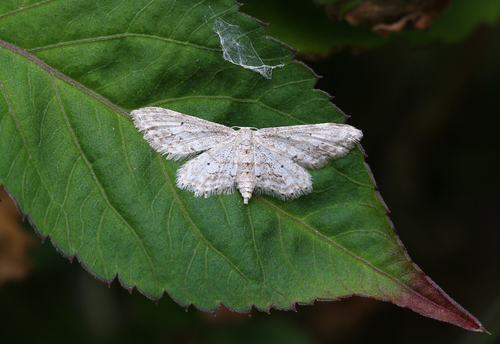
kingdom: Animalia
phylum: Arthropoda
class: Insecta
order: Lepidoptera
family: Geometridae
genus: Idaea
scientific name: Idaea atlantica
